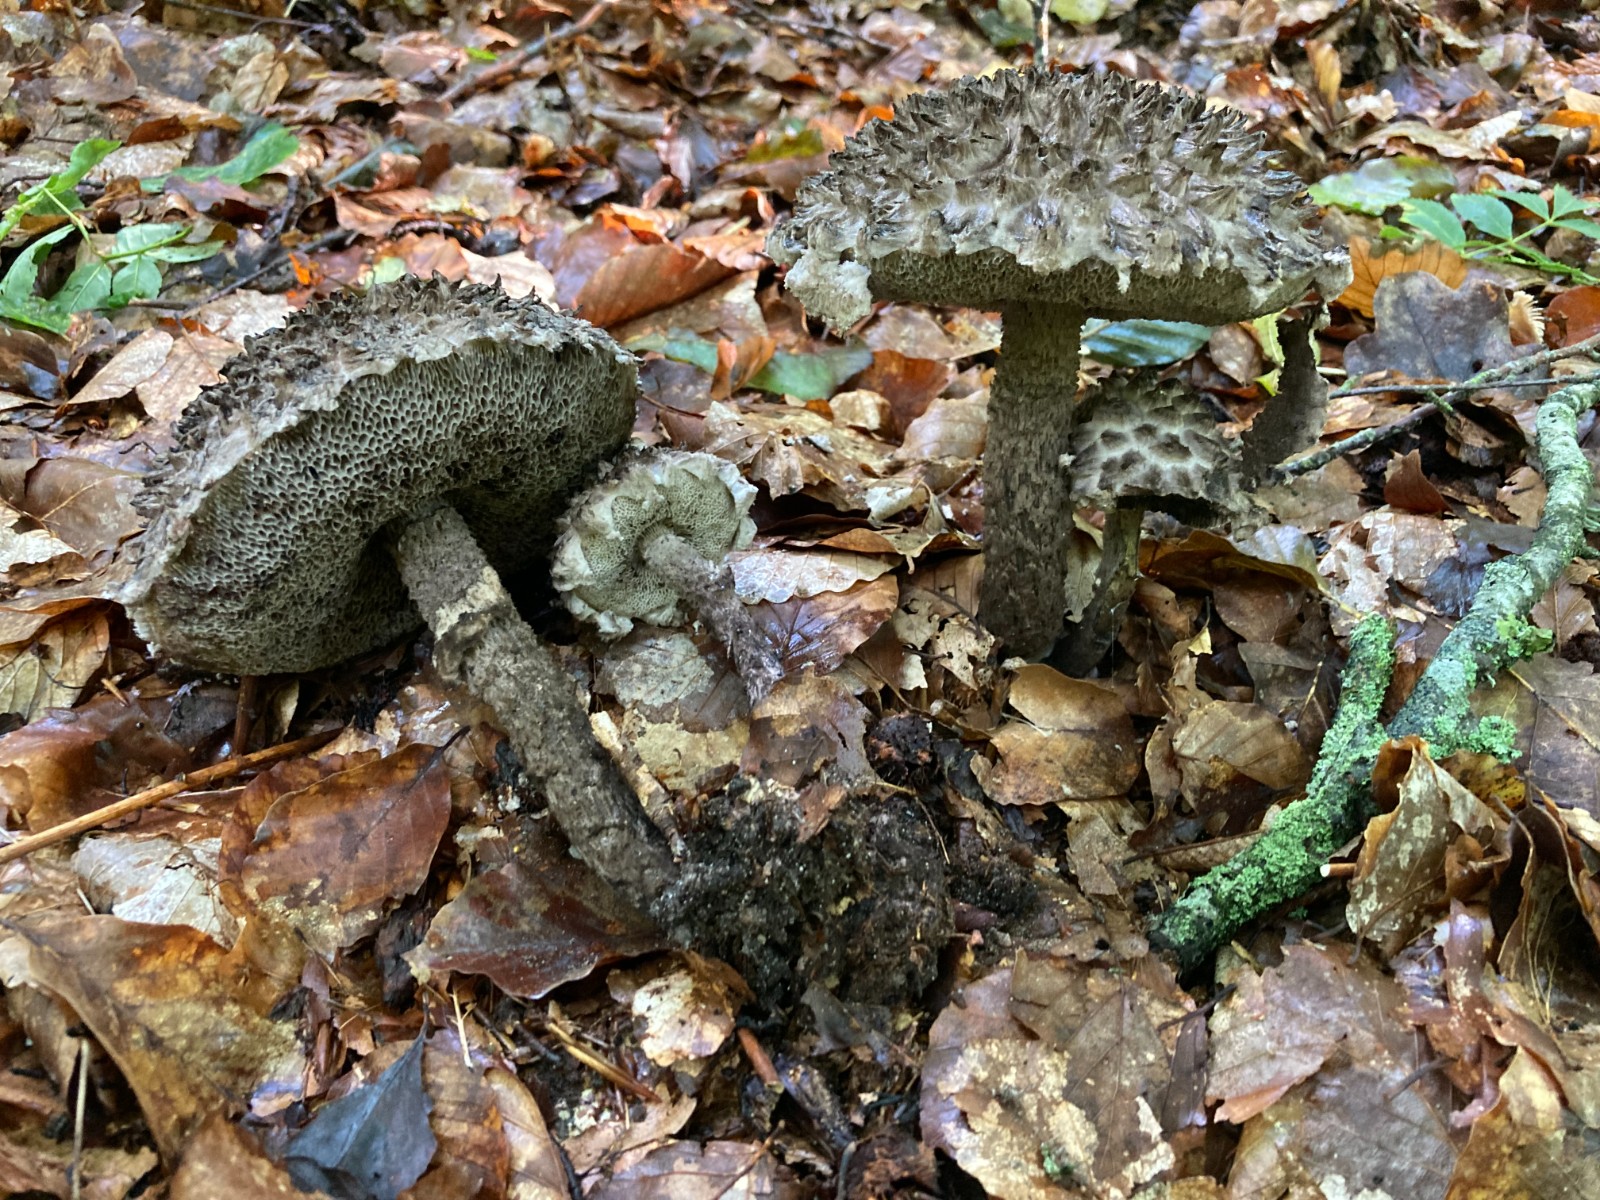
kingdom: Fungi
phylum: Basidiomycota
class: Agaricomycetes
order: Boletales
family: Boletaceae
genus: Strobilomyces
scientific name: Strobilomyces strobilaceus
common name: koglerørhat
